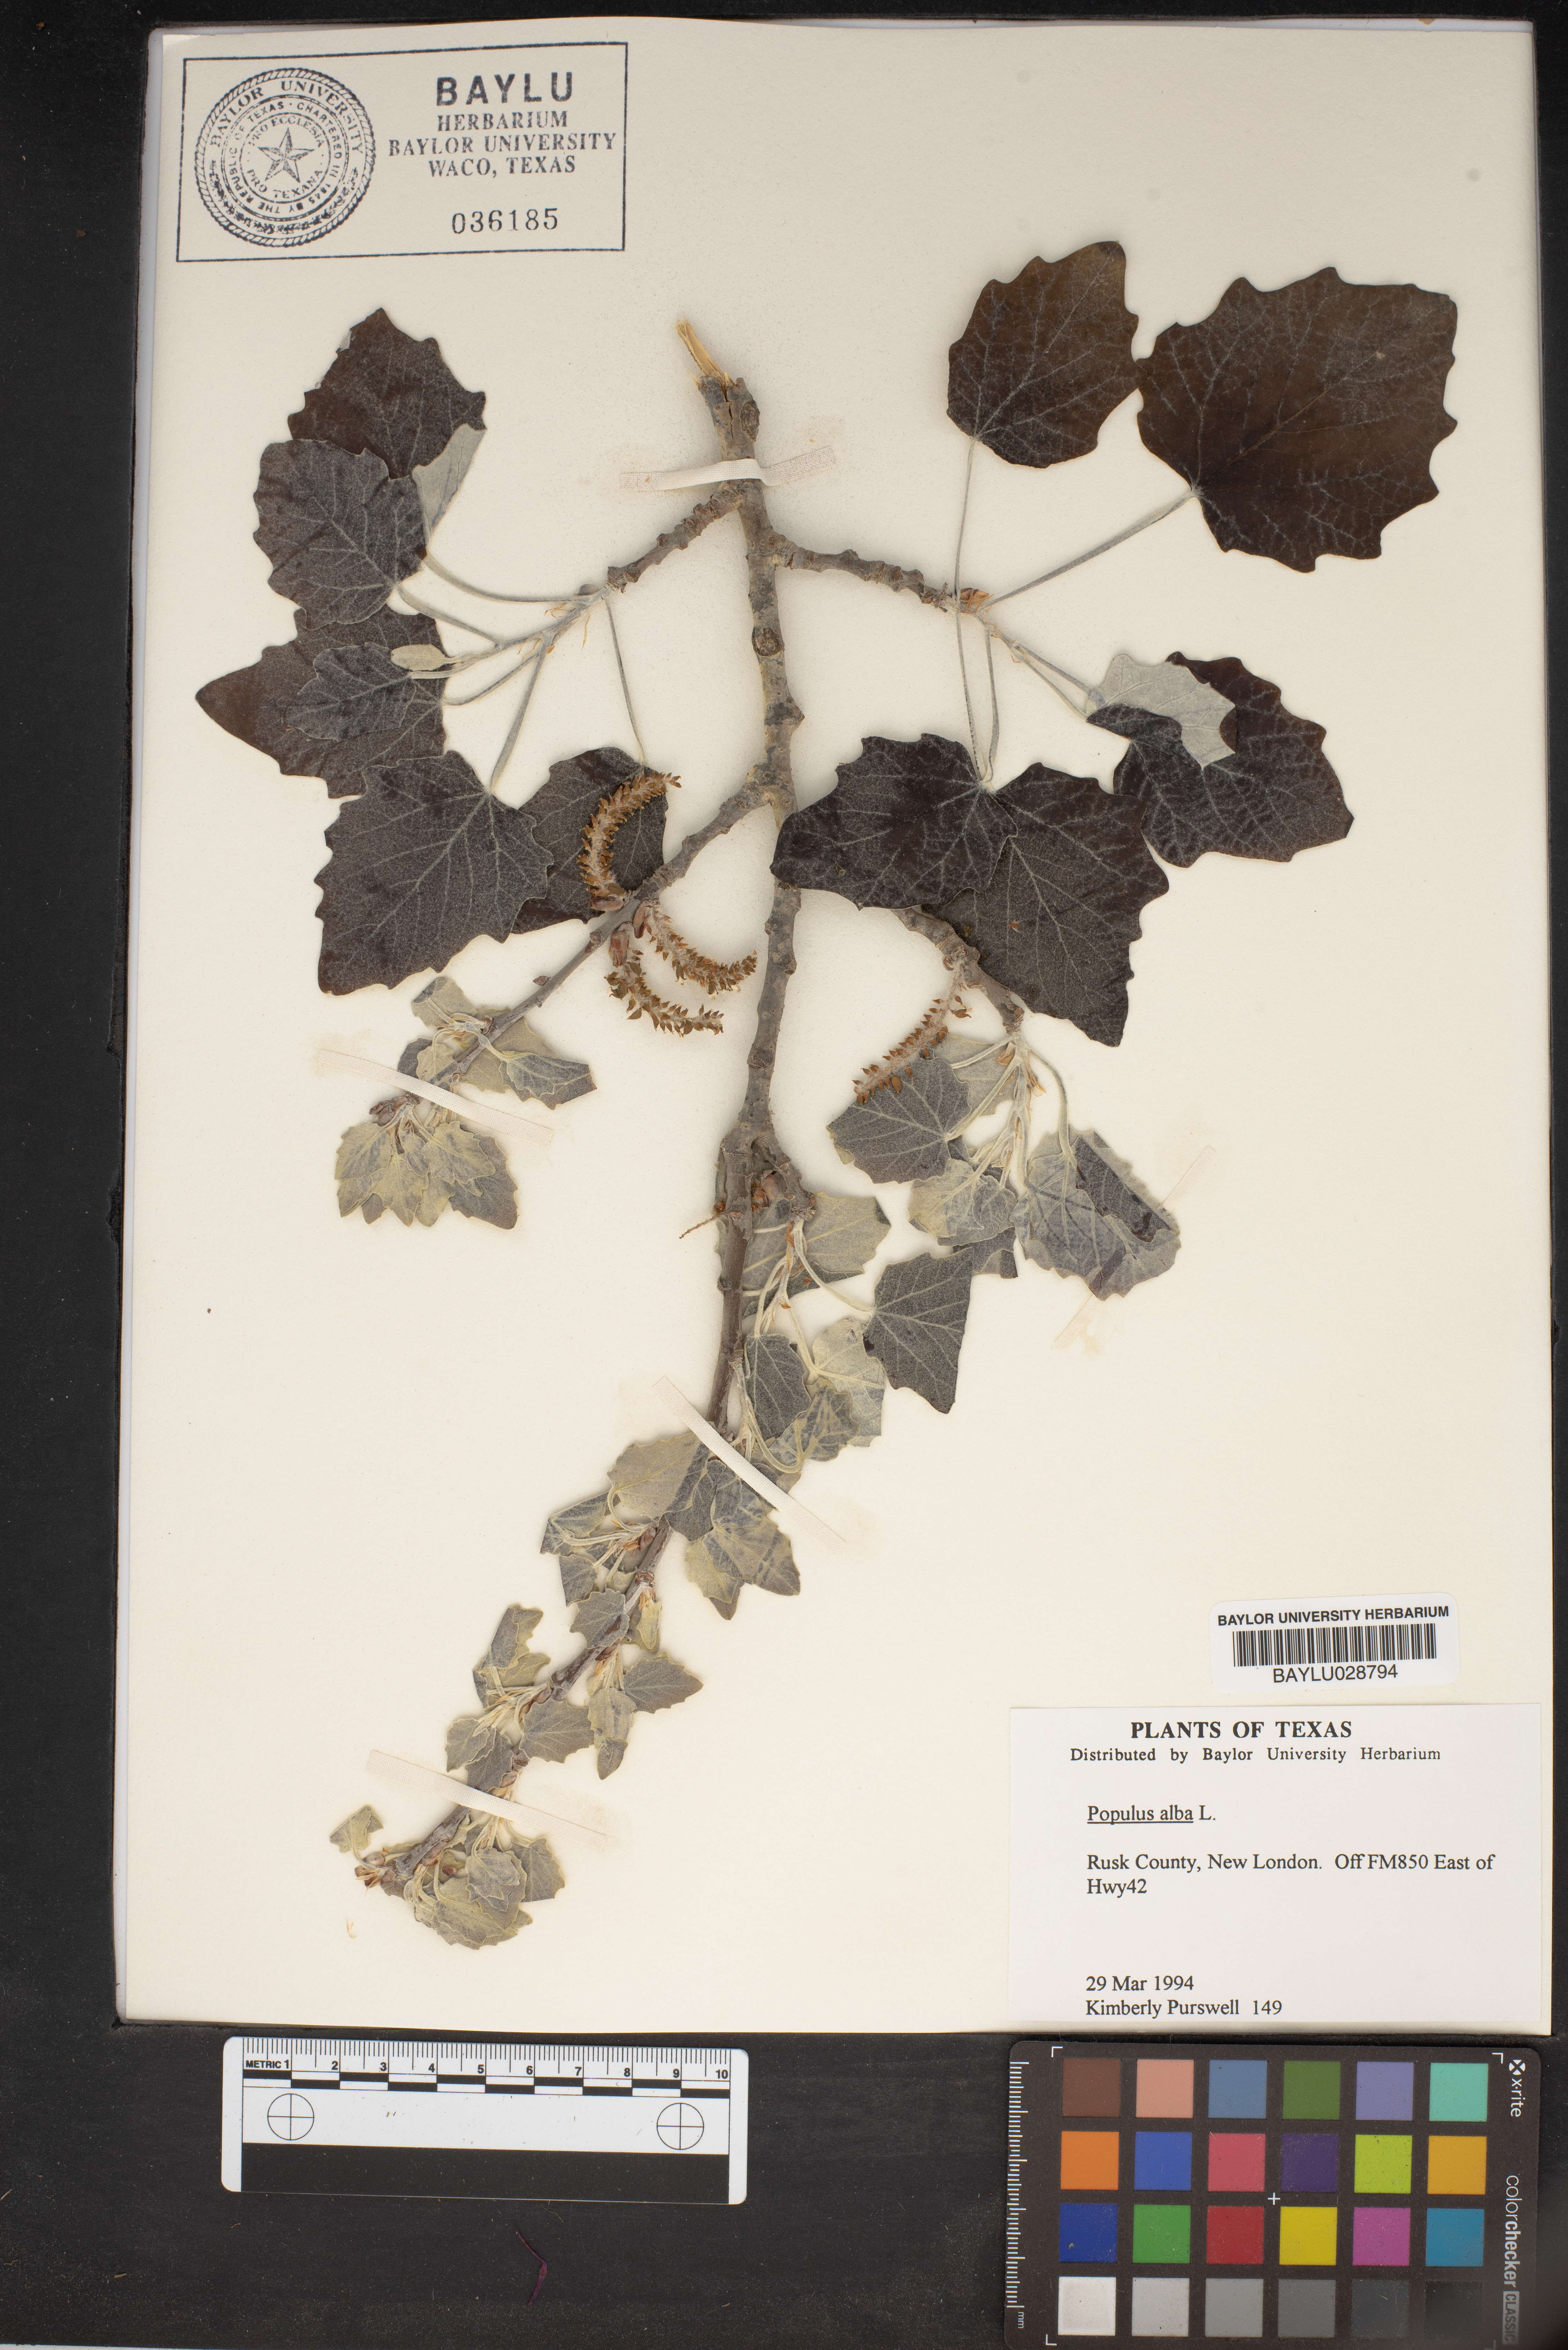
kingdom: Plantae
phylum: Tracheophyta
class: Magnoliopsida
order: Malpighiales
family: Salicaceae
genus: Populus
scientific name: Populus alba
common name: White poplar
